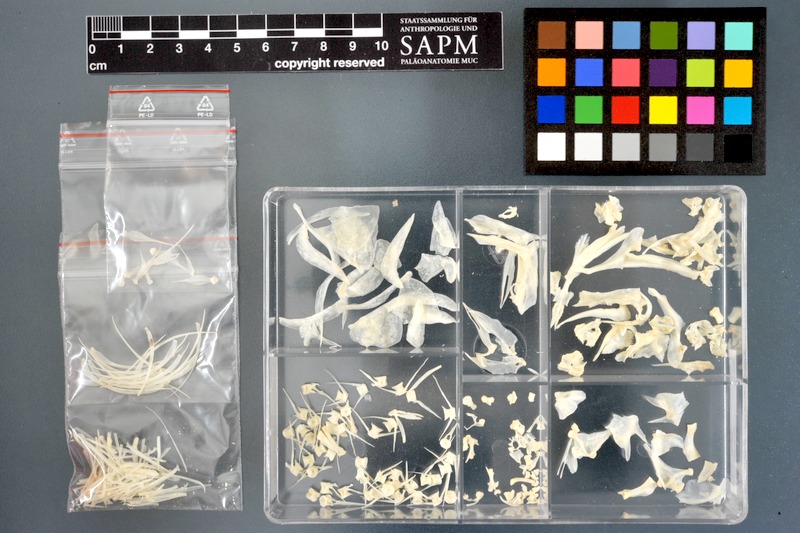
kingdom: Animalia
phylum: Chordata
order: Cypriniformes
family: Cyprinidae
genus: Raiamas
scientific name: Raiamas senegalensis
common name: Senegal minnow
